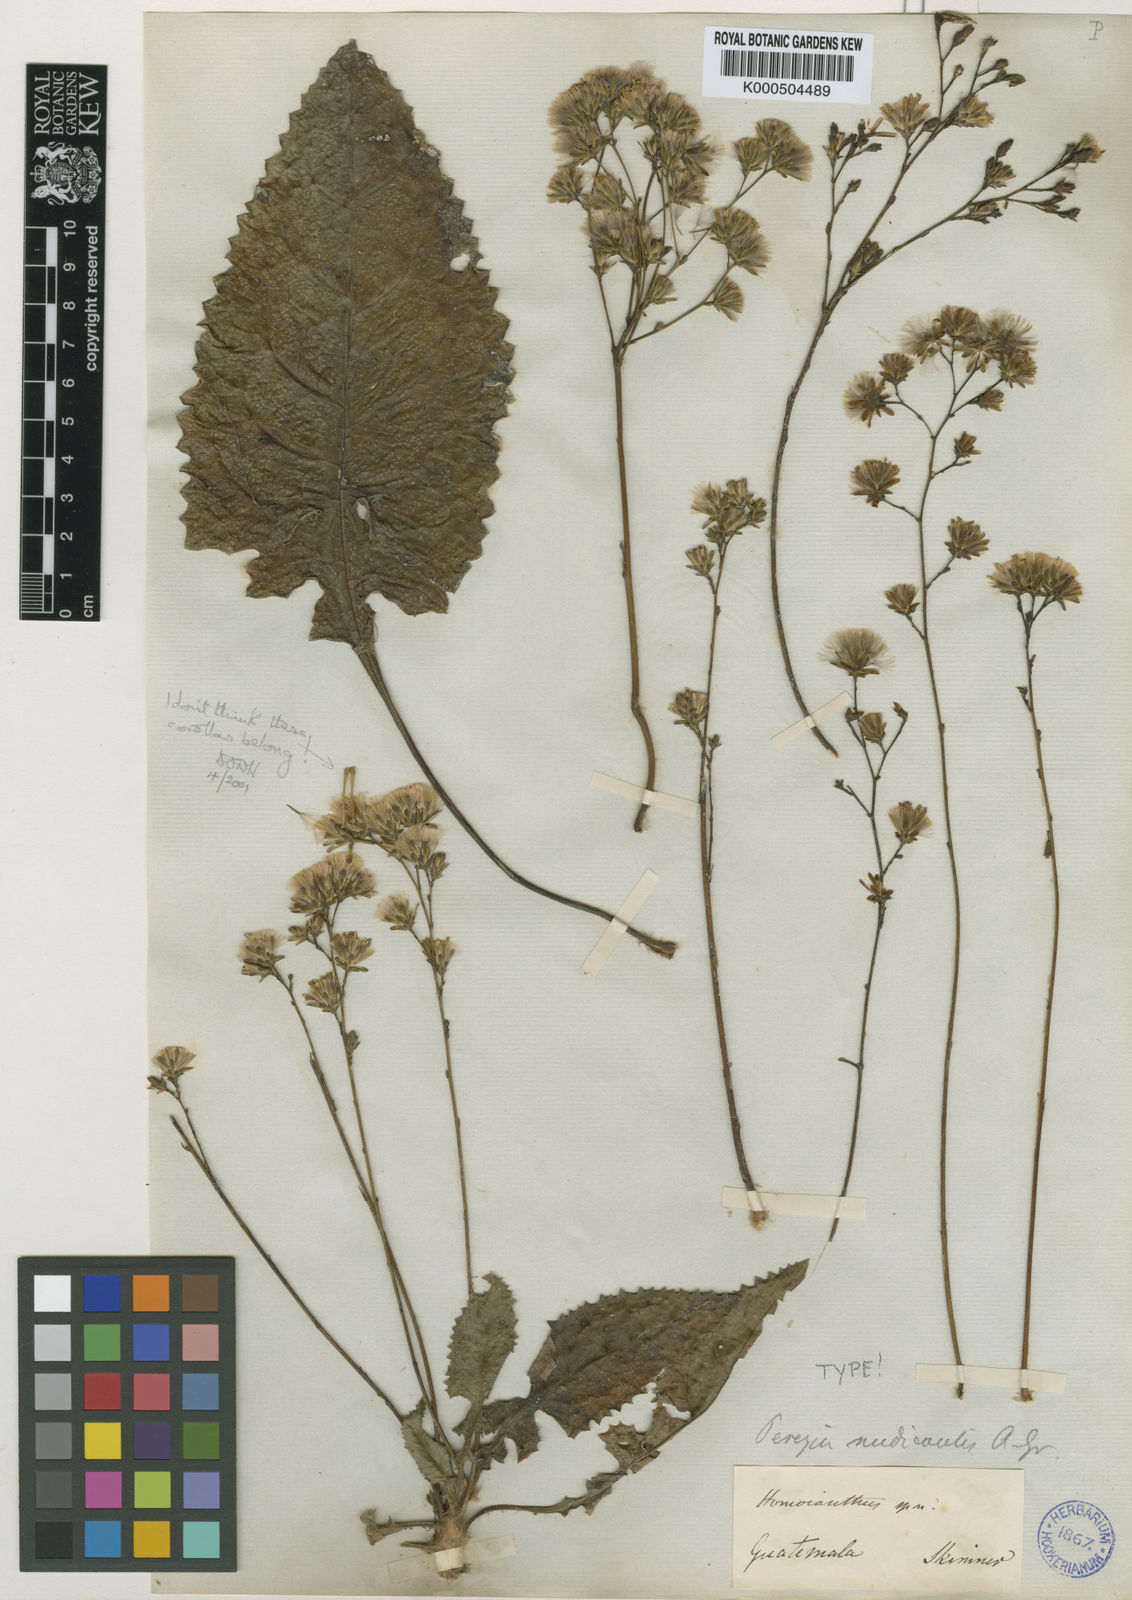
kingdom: Plantae
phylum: Tracheophyta
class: Magnoliopsida
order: Asterales
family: Asteraceae
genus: Acourtia
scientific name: Acourtia nudicaulis
